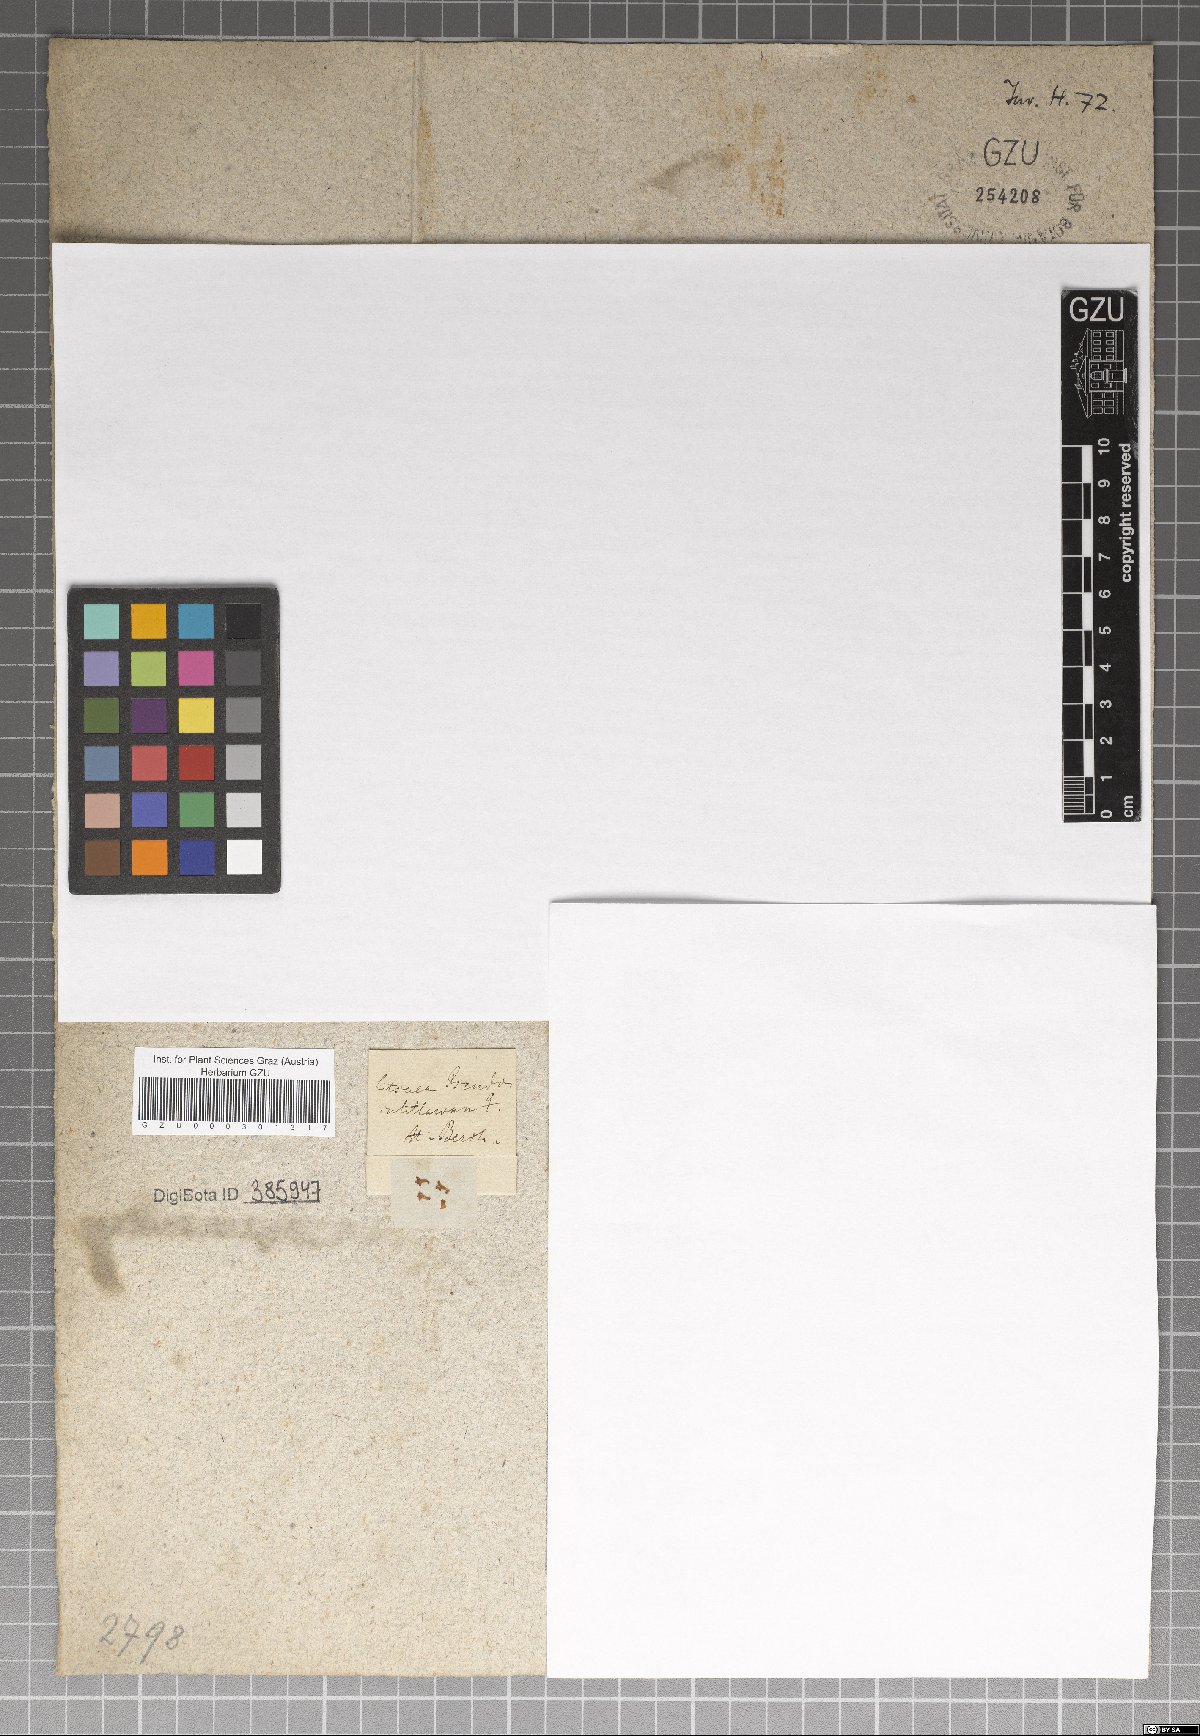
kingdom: Plantae
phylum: Tracheophyta
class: Magnoliopsida
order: Laurales
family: Lauraceae
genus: Neolitsea
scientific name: Neolitsea cassia
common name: Laurel
